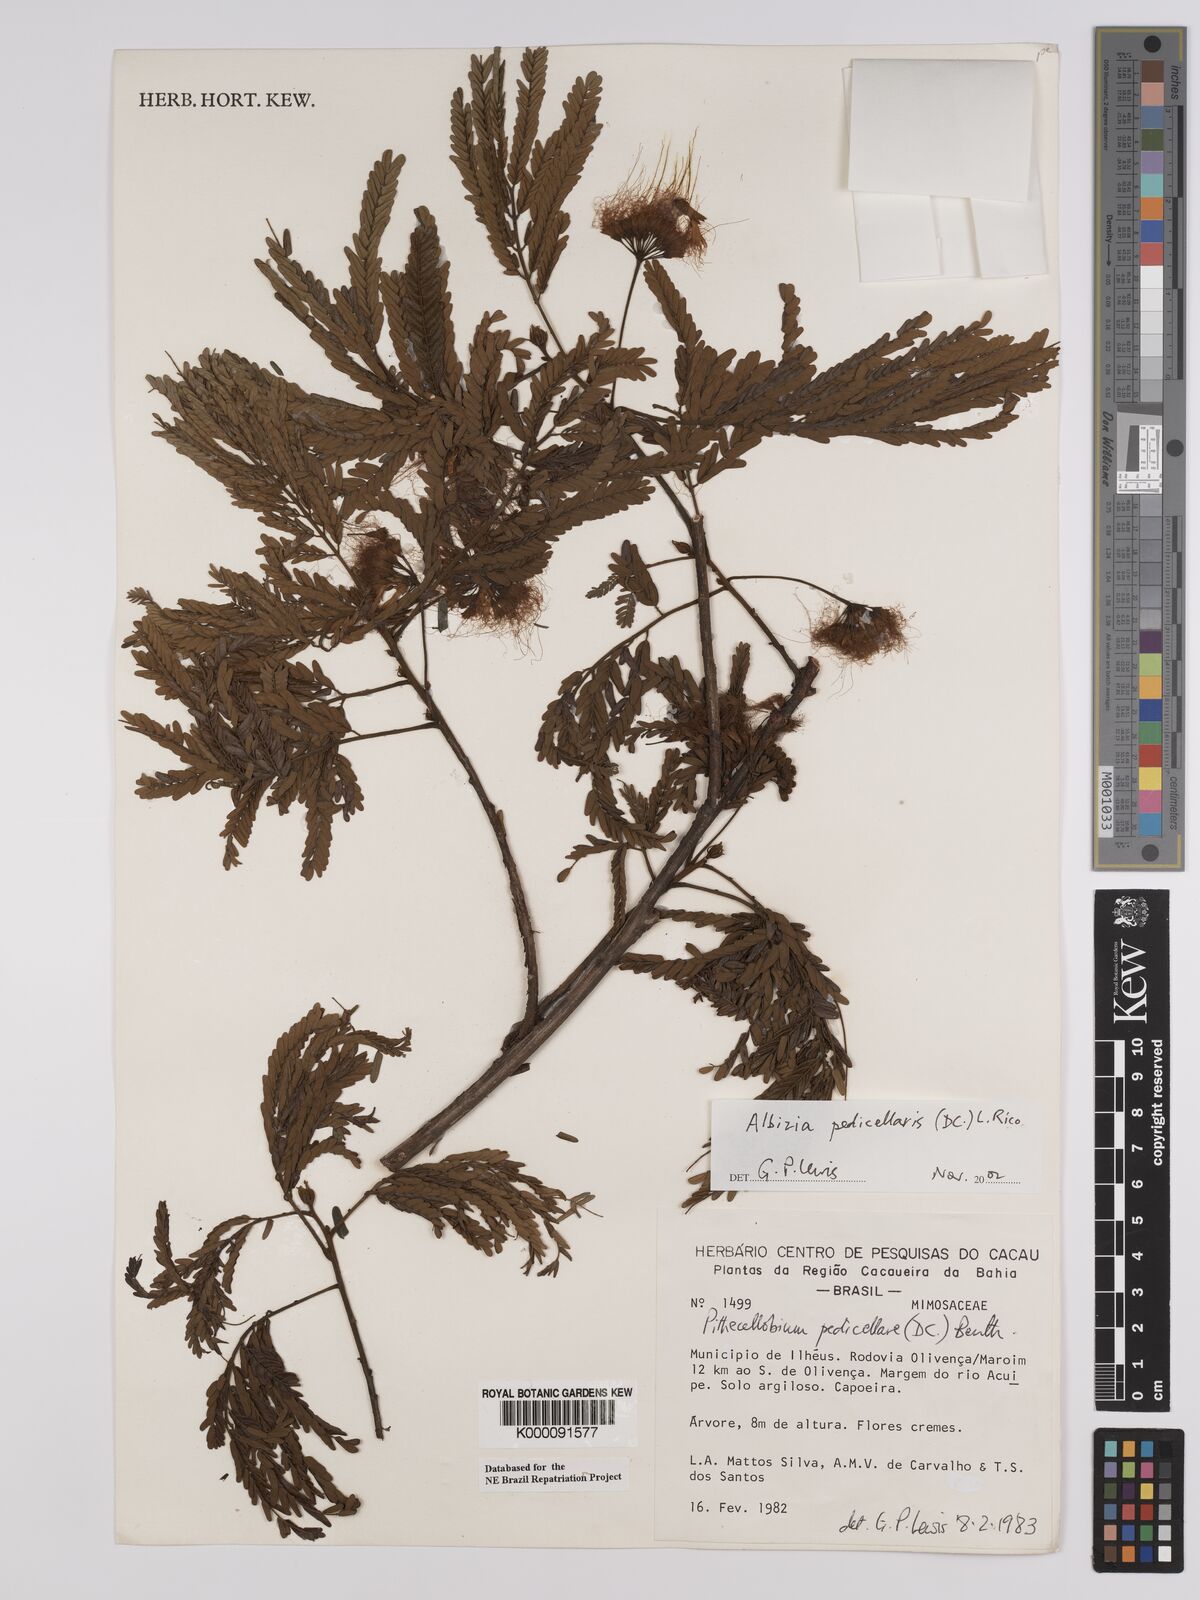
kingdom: Plantae
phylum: Tracheophyta
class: Magnoliopsida
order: Fabales
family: Fabaceae
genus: Balizia
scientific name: Balizia pedicellaris
